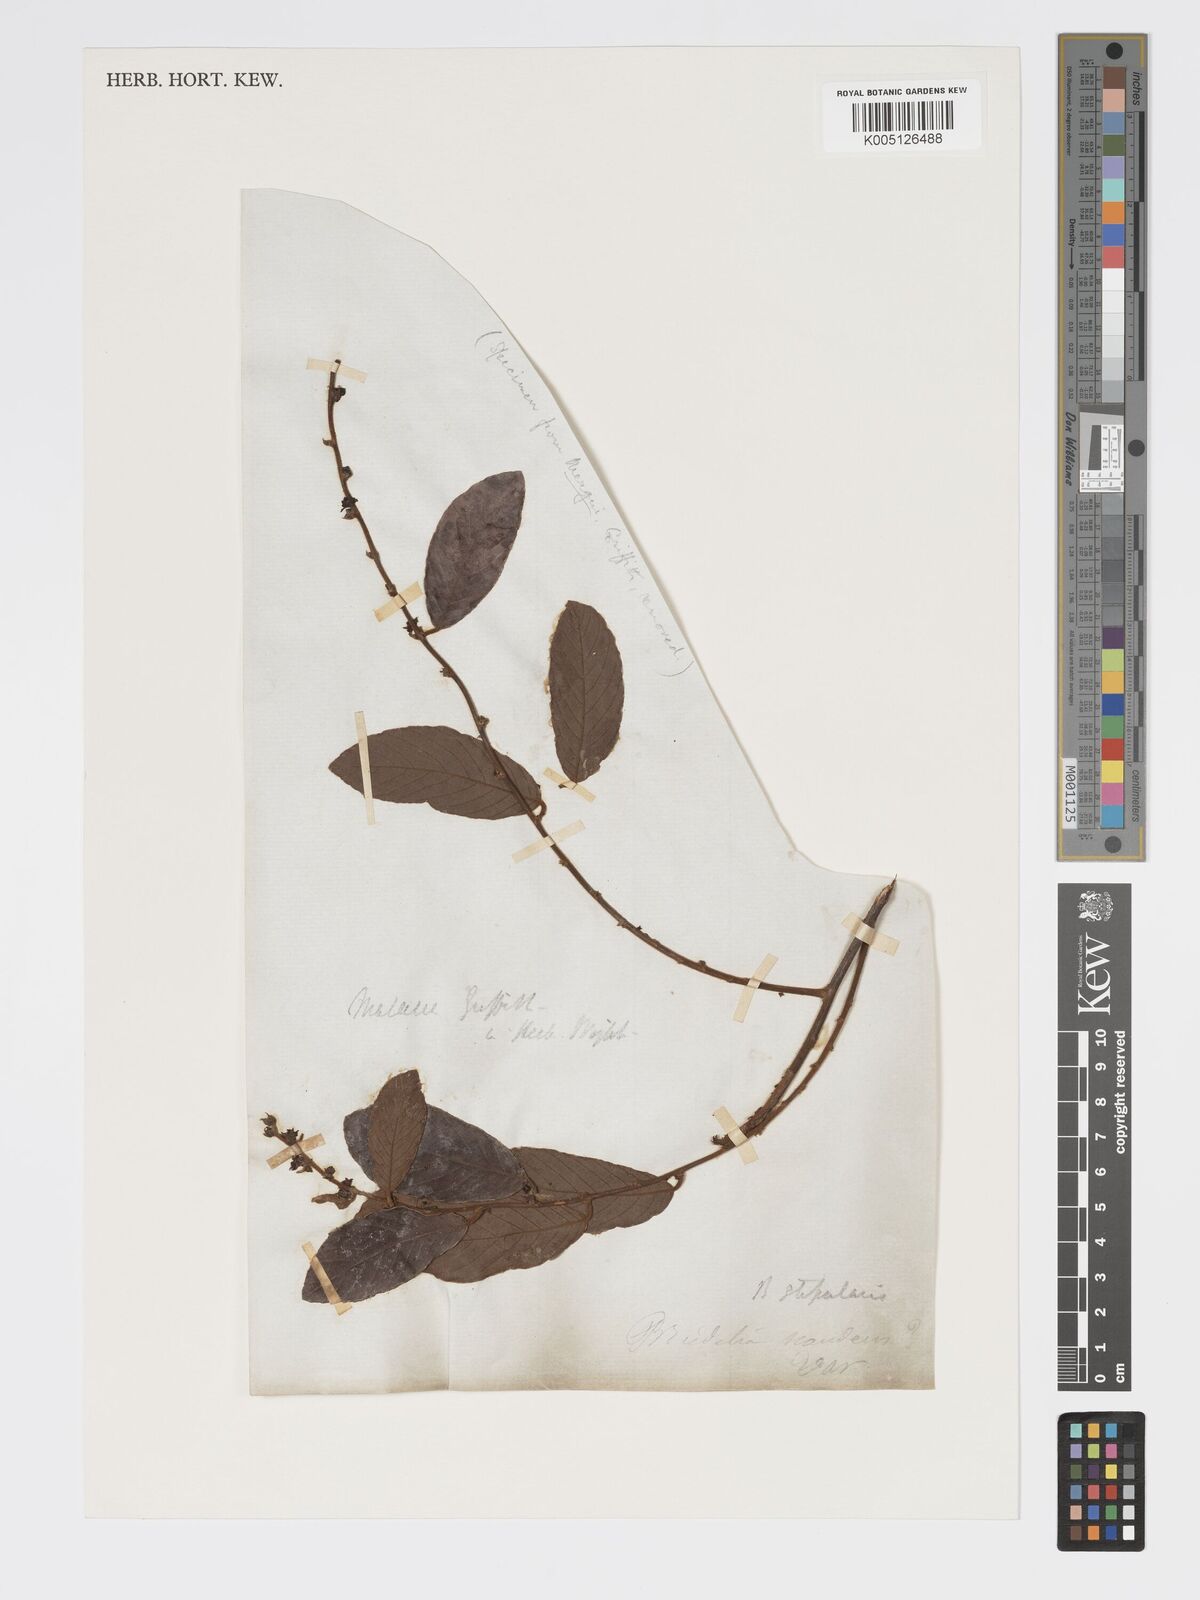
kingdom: Plantae
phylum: Tracheophyta
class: Magnoliopsida
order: Malpighiales
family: Phyllanthaceae
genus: Bridelia
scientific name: Bridelia stipularis
